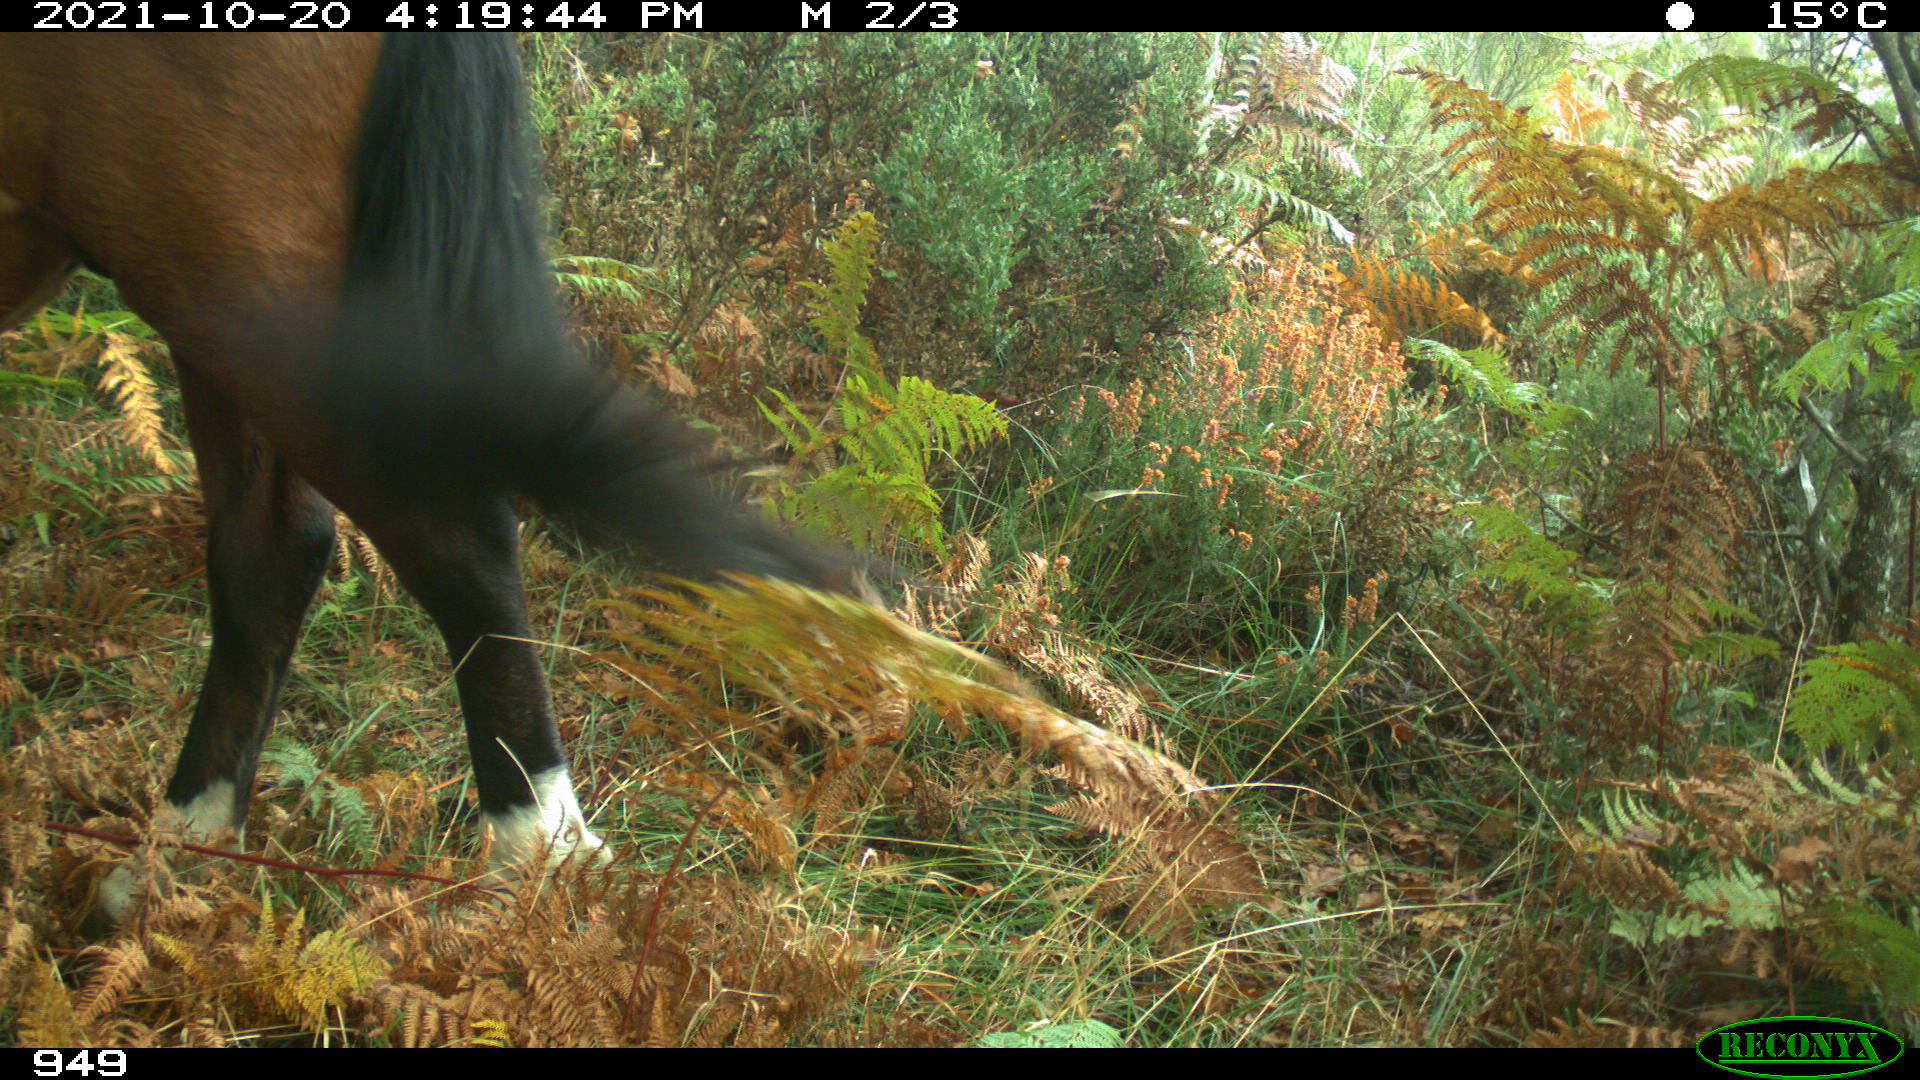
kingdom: Animalia
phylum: Chordata
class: Mammalia
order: Perissodactyla
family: Equidae
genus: Equus
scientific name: Equus caballus
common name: Horse
